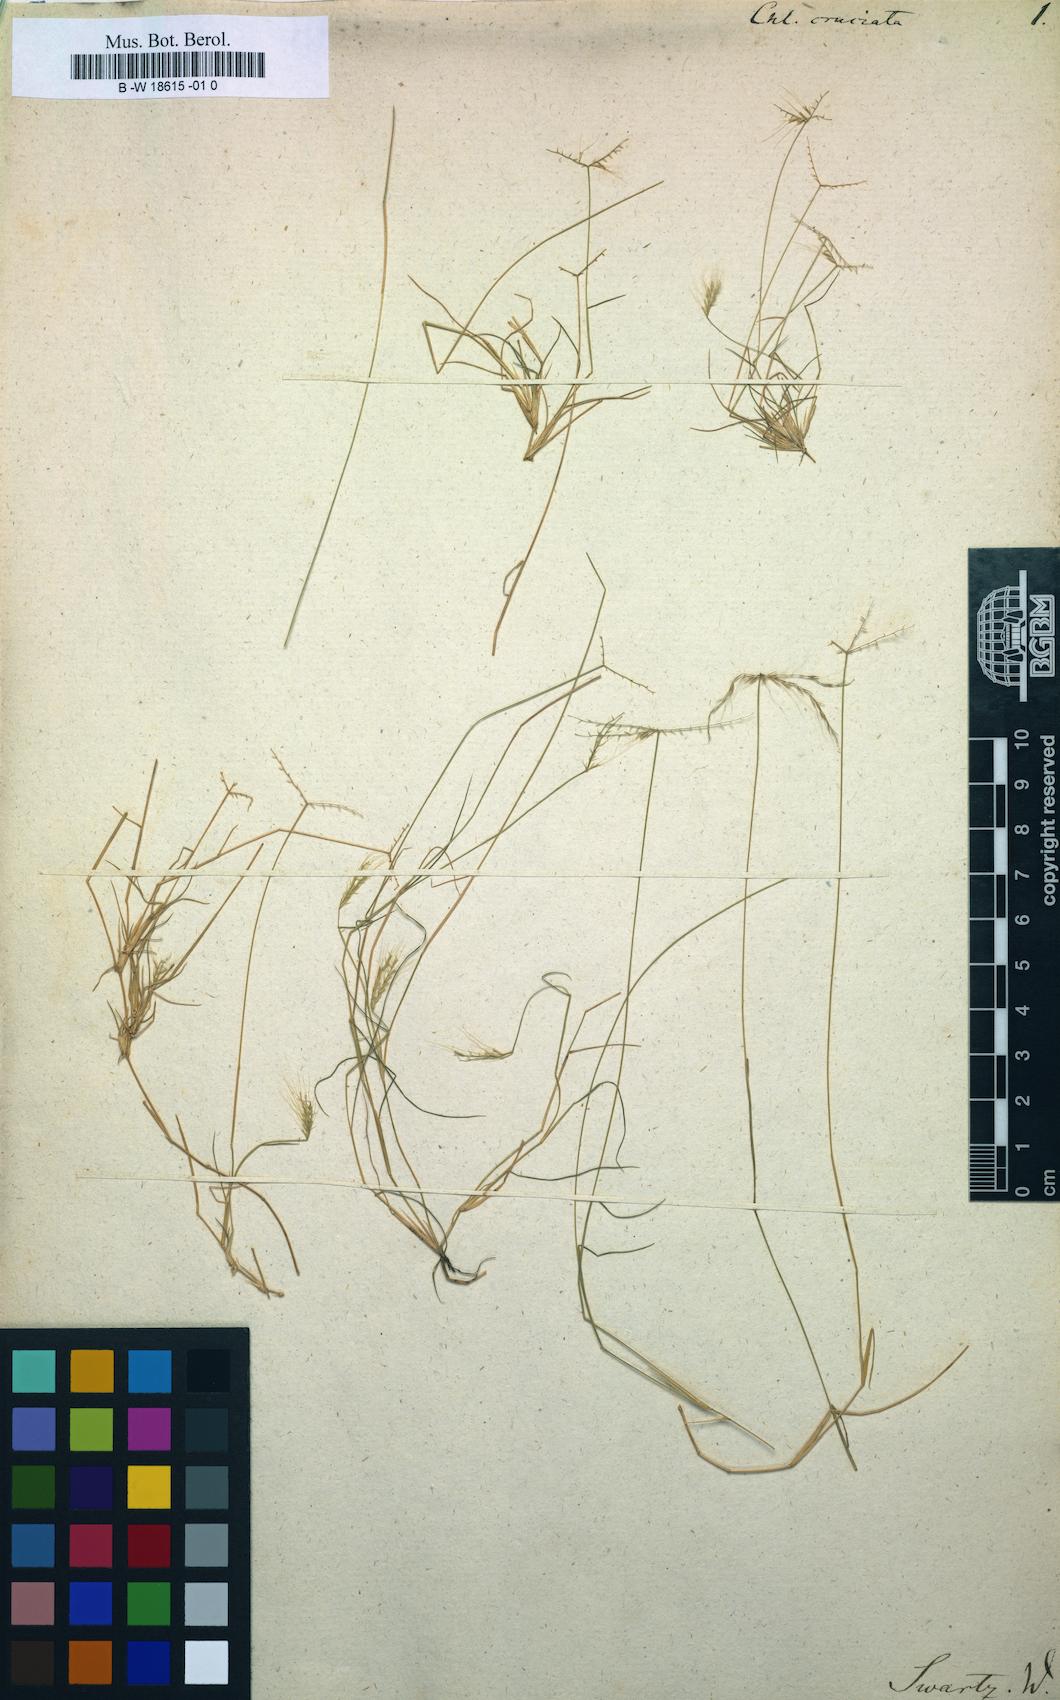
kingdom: Plantae
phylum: Tracheophyta
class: Liliopsida
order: Poales
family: Poaceae
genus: Chloris
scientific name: Chloris cruciata
